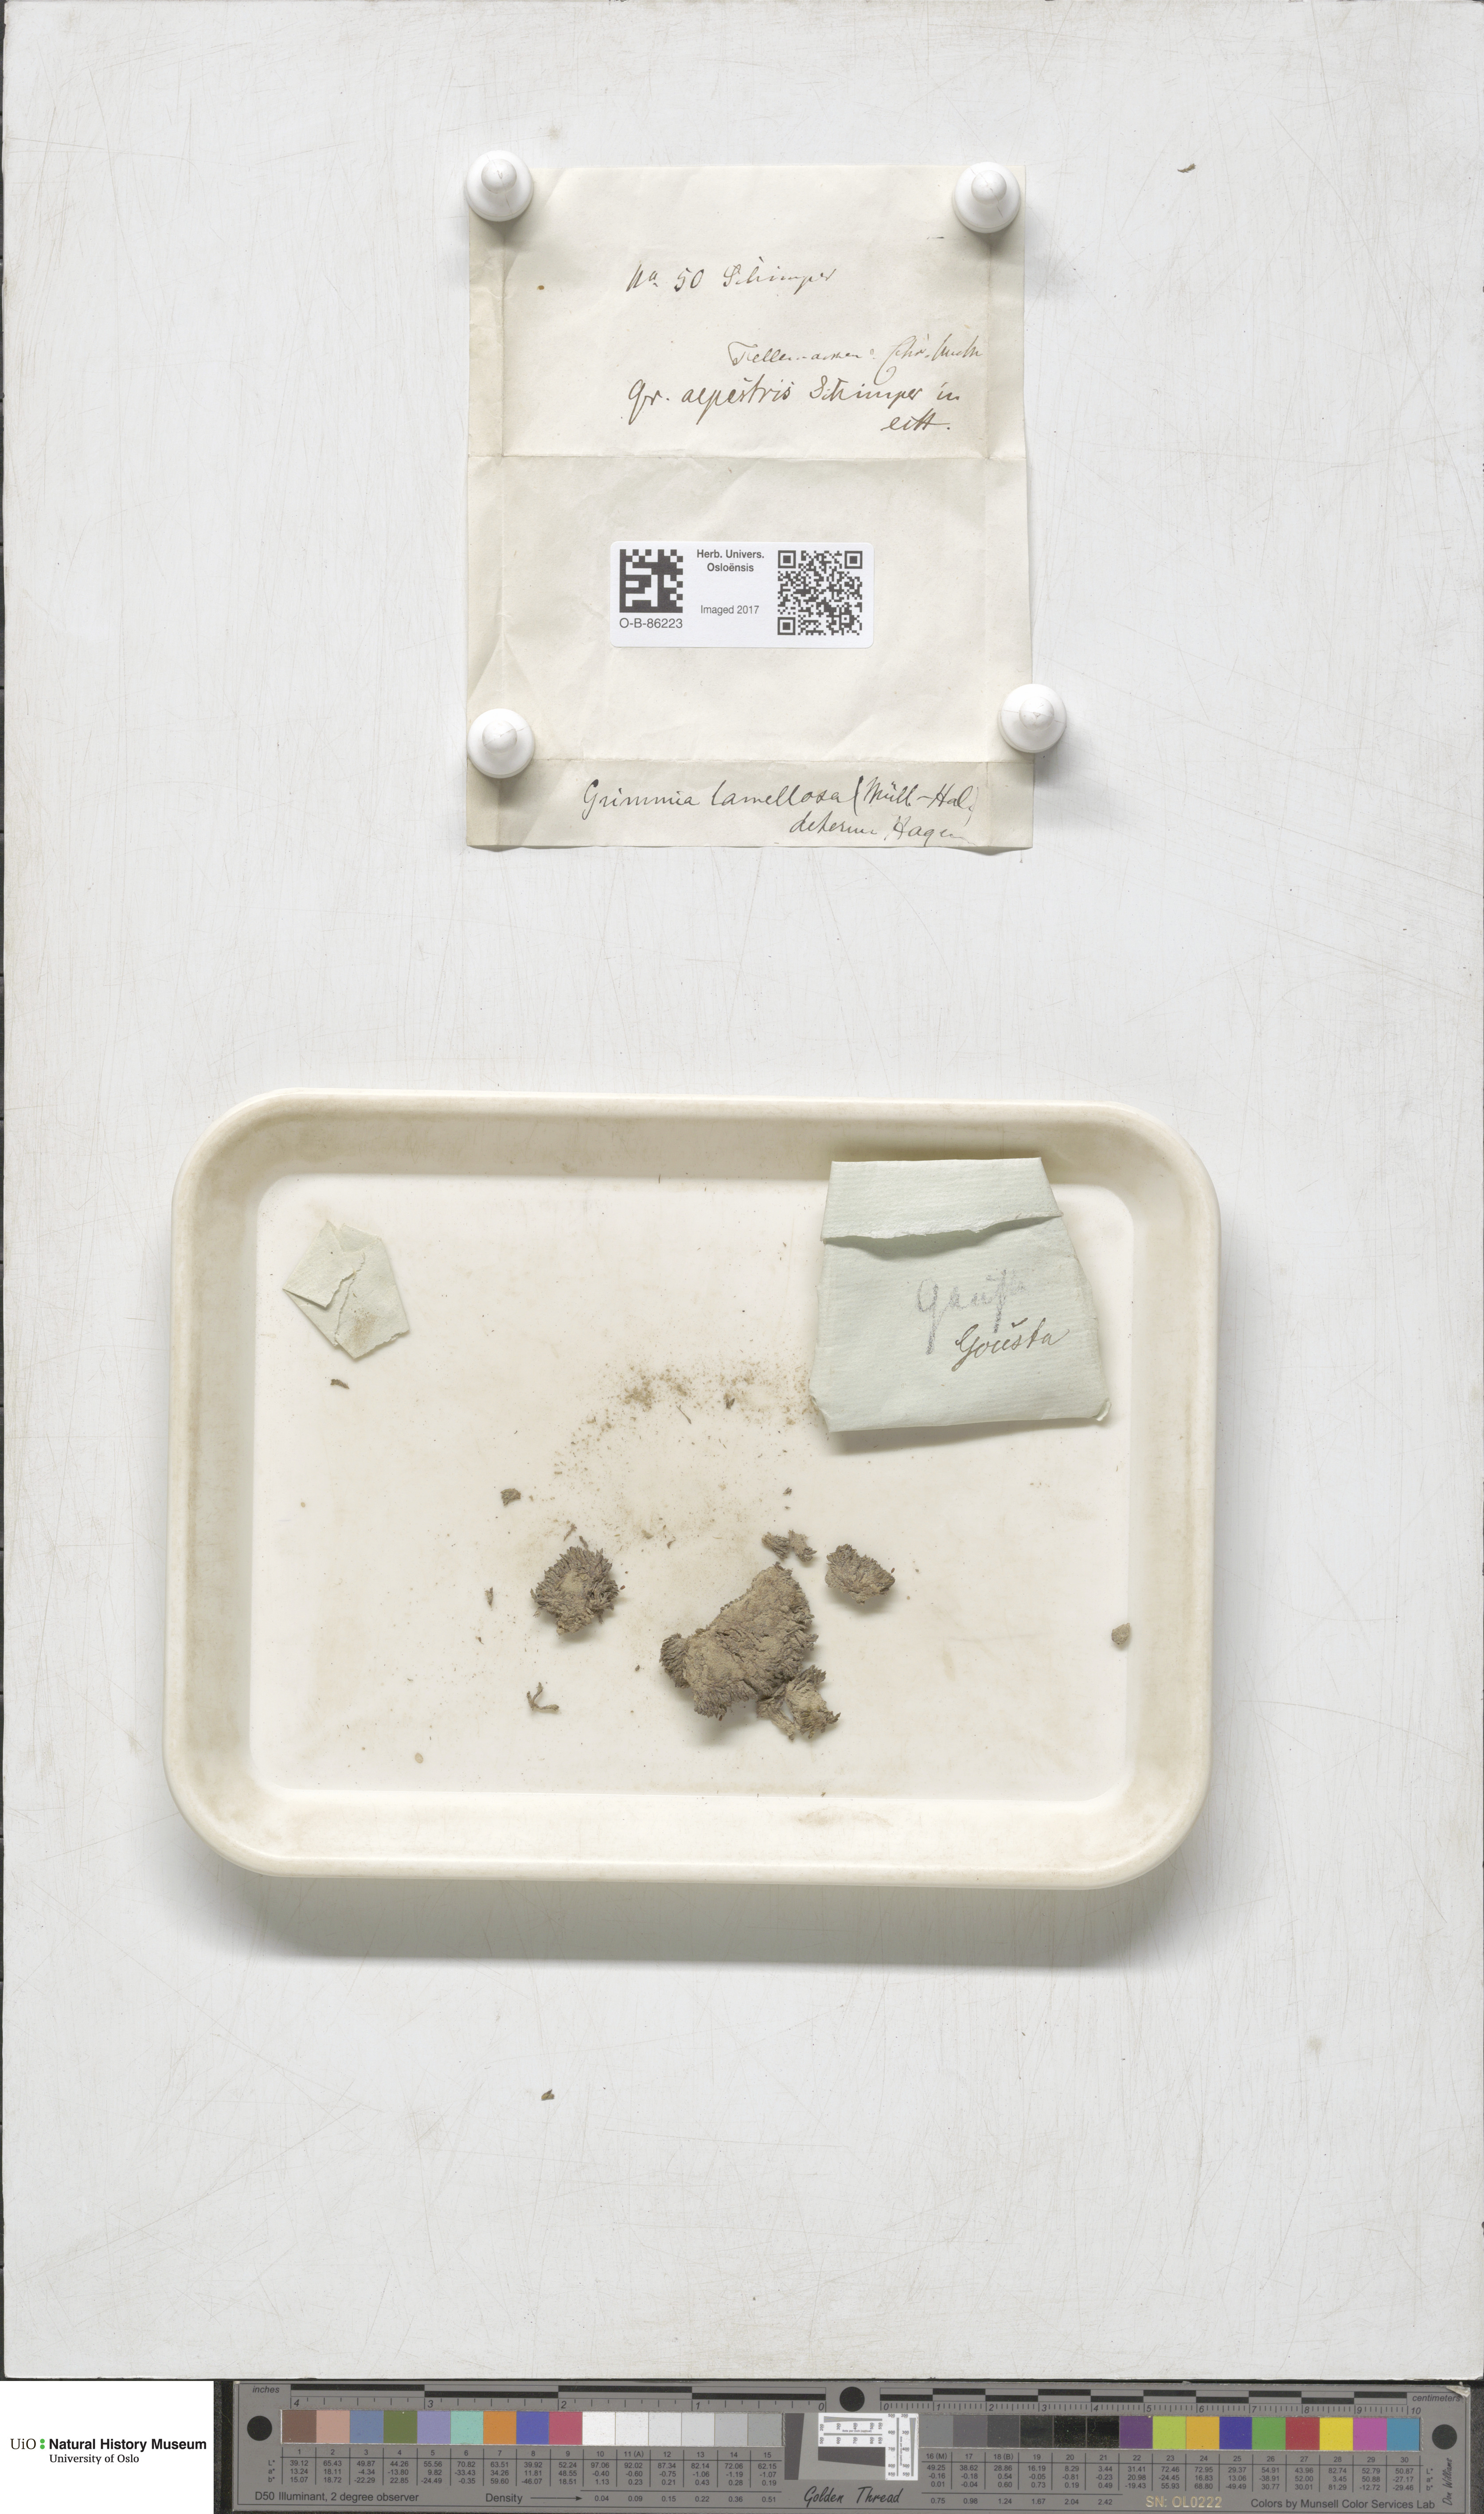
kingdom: Plantae
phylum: Bryophyta
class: Bryopsida
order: Grimmiales
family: Grimmiaceae
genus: Grimmia
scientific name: Grimmia donniana
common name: Donn's grimmia
